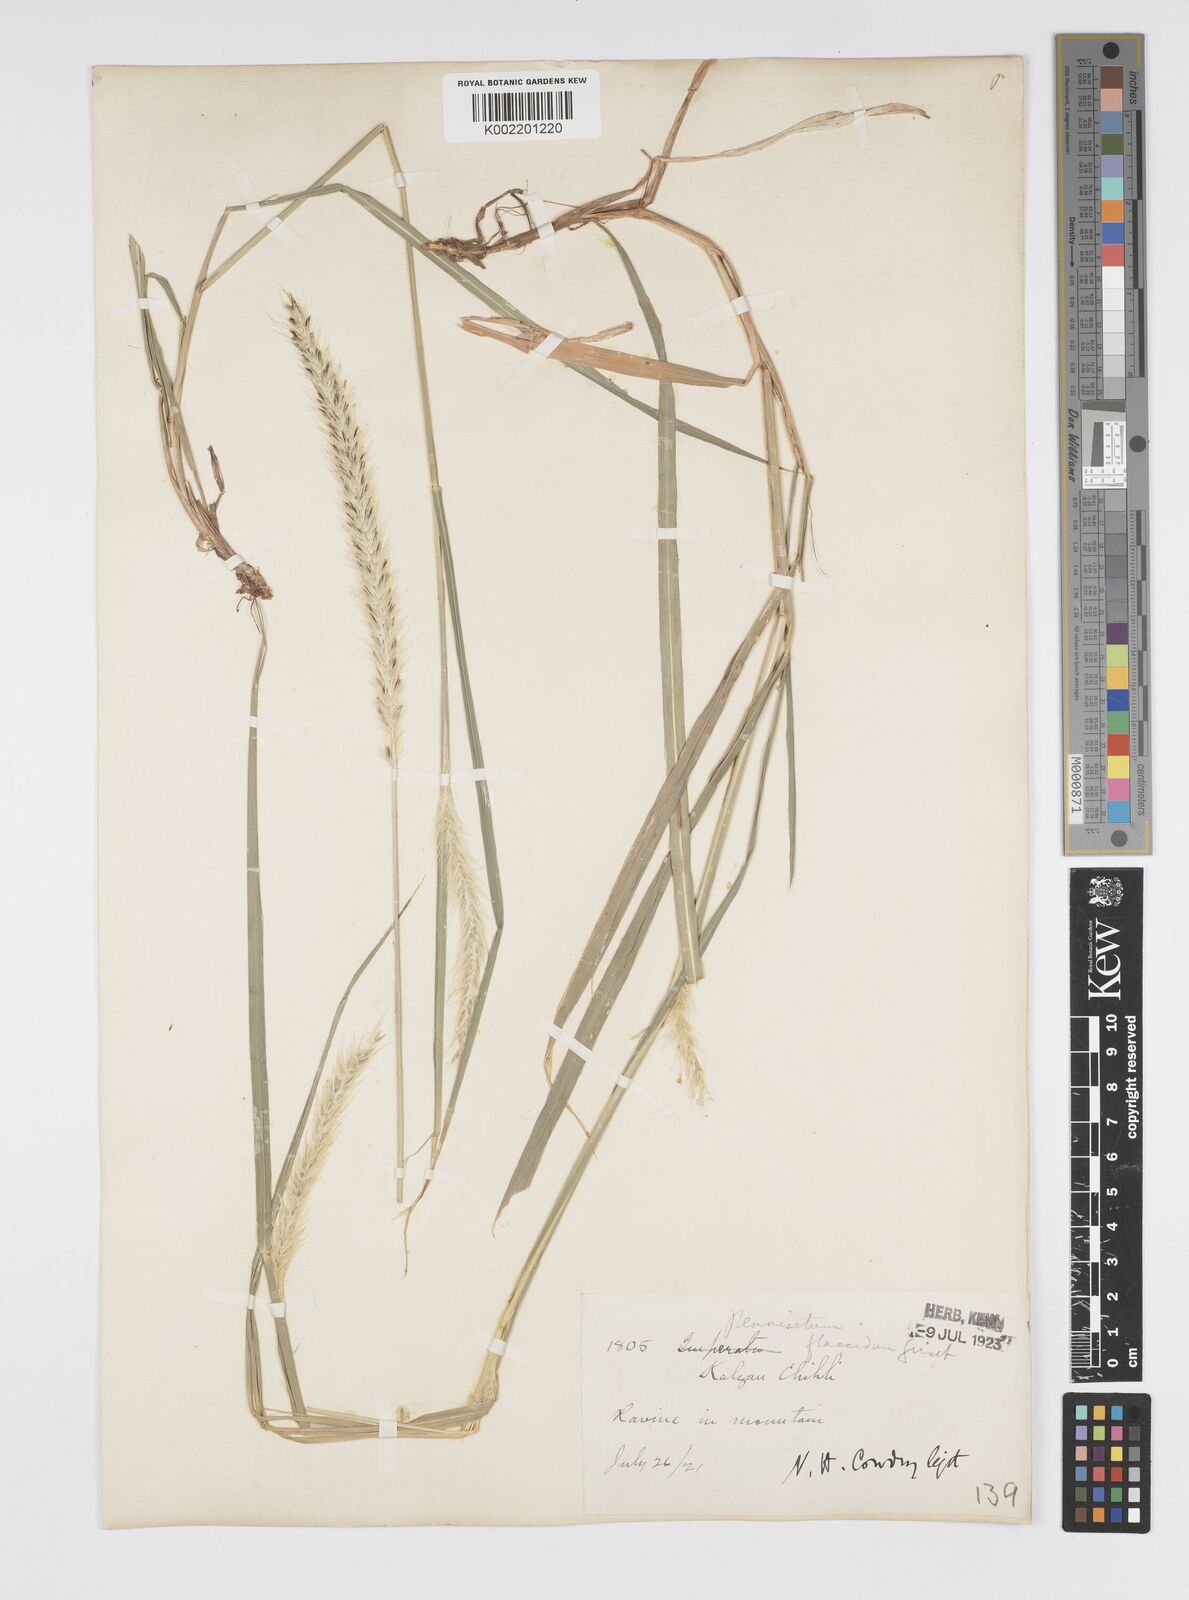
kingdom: Plantae
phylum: Tracheophyta
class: Liliopsida
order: Poales
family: Poaceae
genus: Cenchrus
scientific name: Cenchrus flaccidus
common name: Flaccid grass
